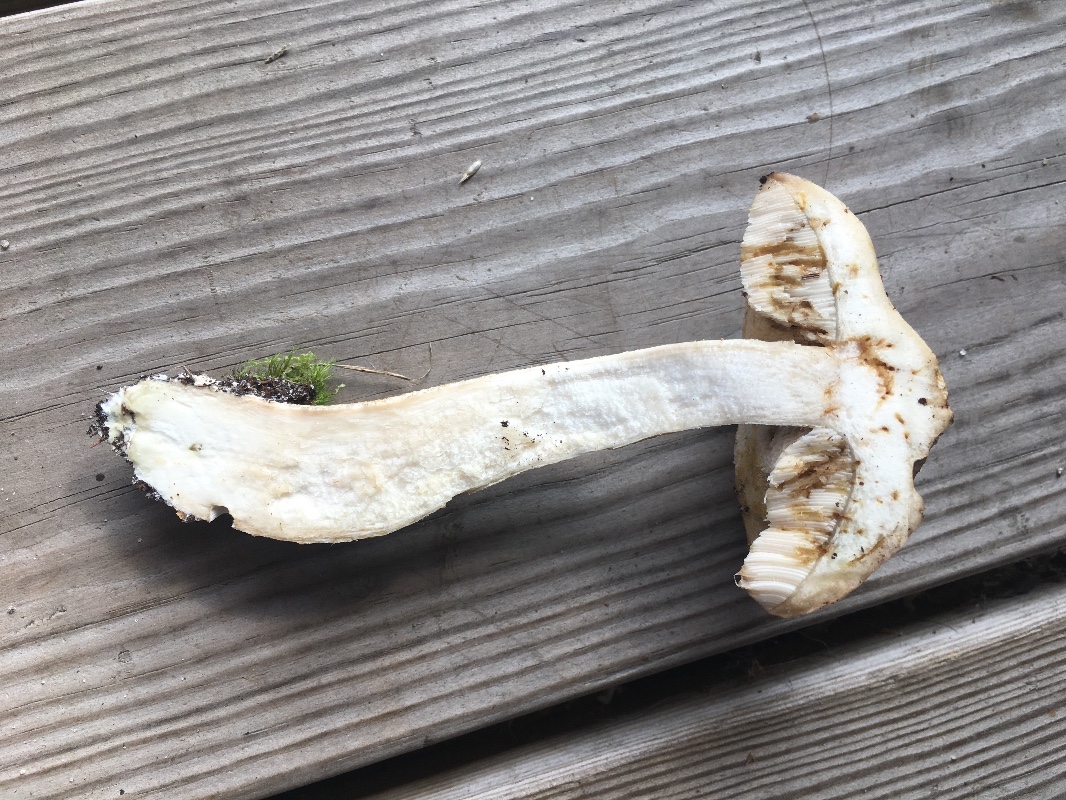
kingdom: Fungi
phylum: Basidiomycota
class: Agaricomycetes
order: Boletales
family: Boletaceae
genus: Leccinum
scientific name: Leccinum scabrum
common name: hvid skælrørhat
